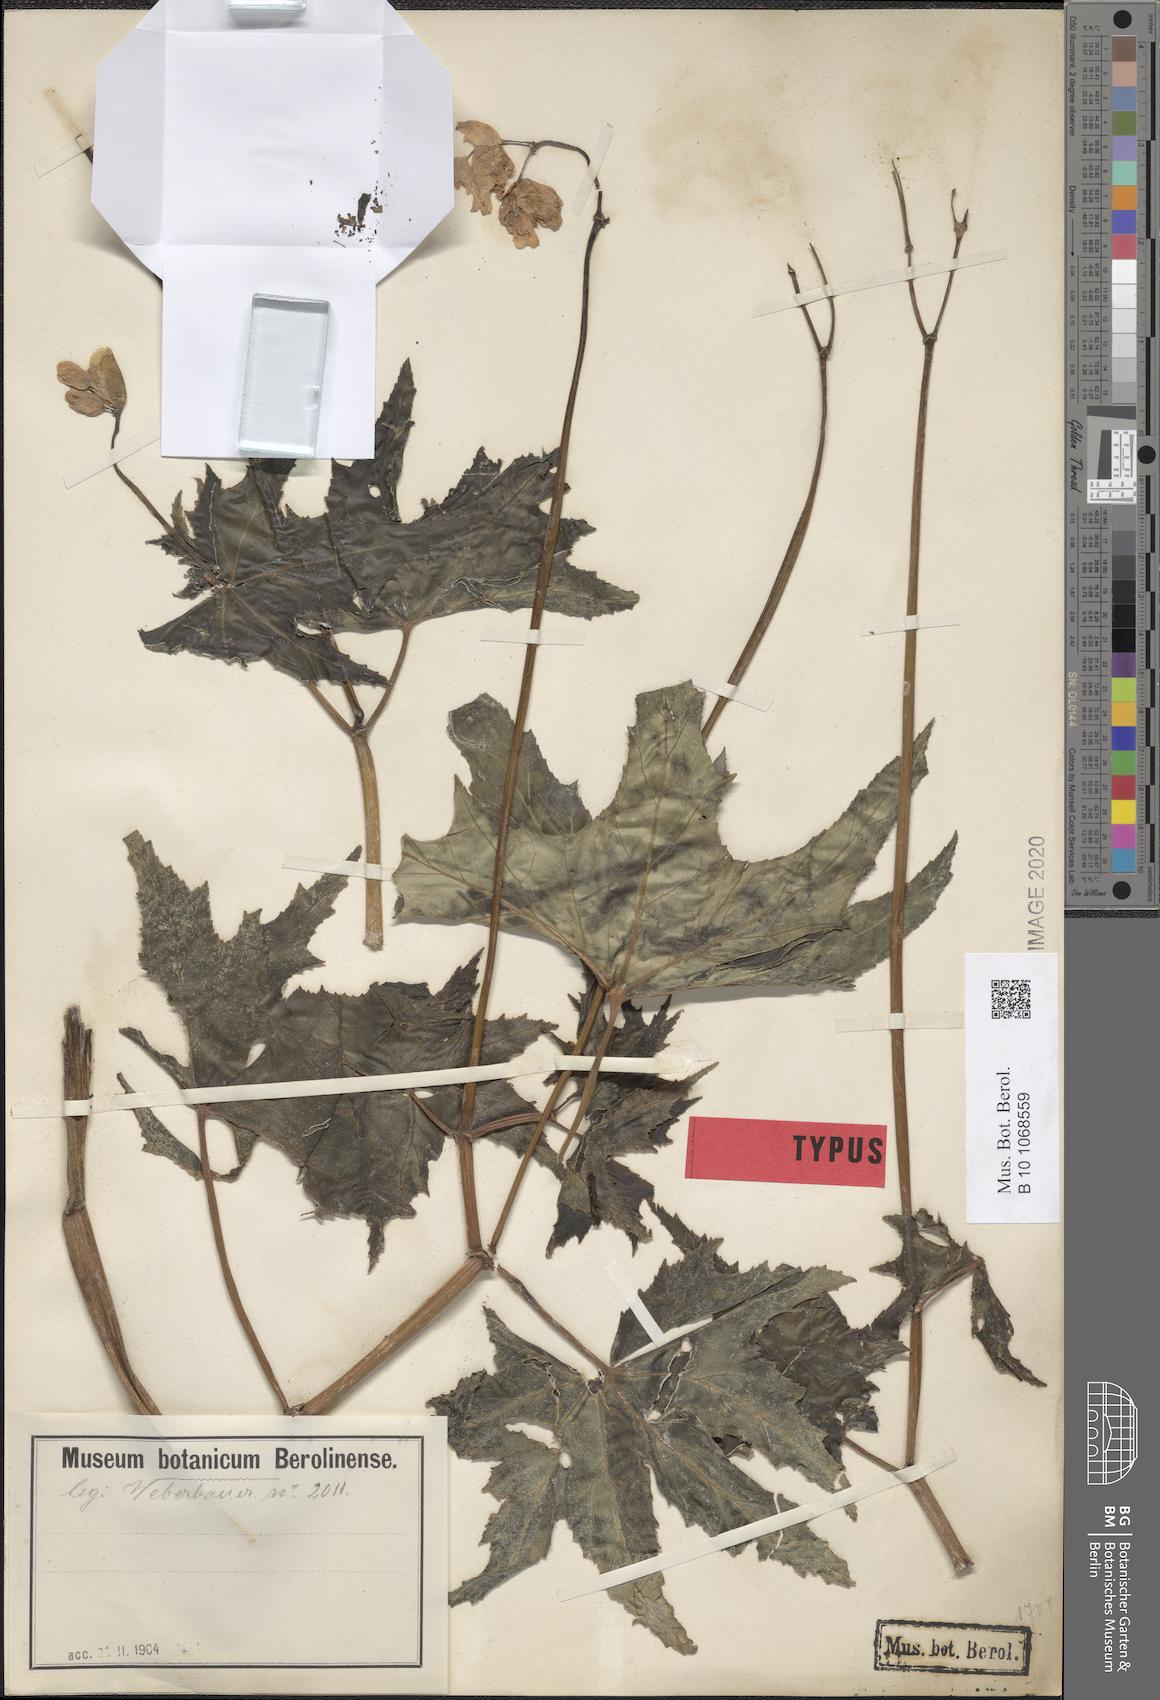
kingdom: Plantae
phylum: Tracheophyta
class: Magnoliopsida
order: Cucurbitales
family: Begoniaceae
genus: Begonia
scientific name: Begonia acerifolia
